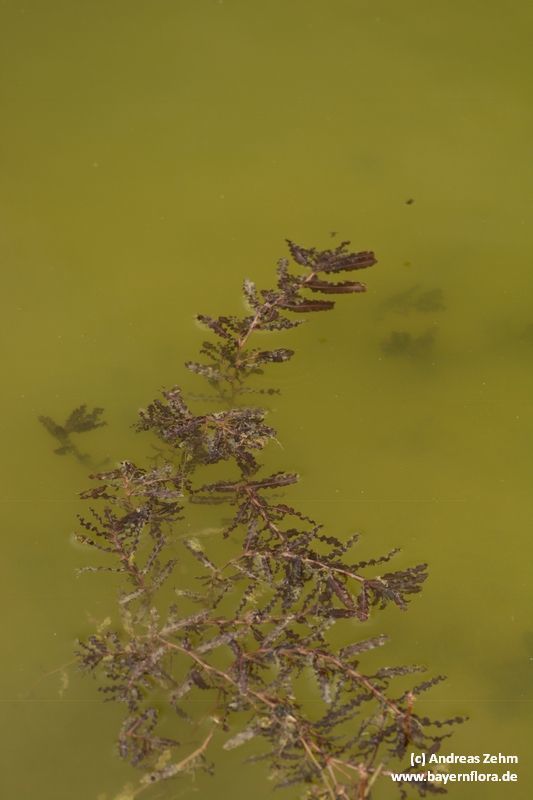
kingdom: Plantae
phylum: Tracheophyta
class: Liliopsida
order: Alismatales
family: Potamogetonaceae
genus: Potamogeton
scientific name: Potamogeton crispus
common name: Curled pondweed
